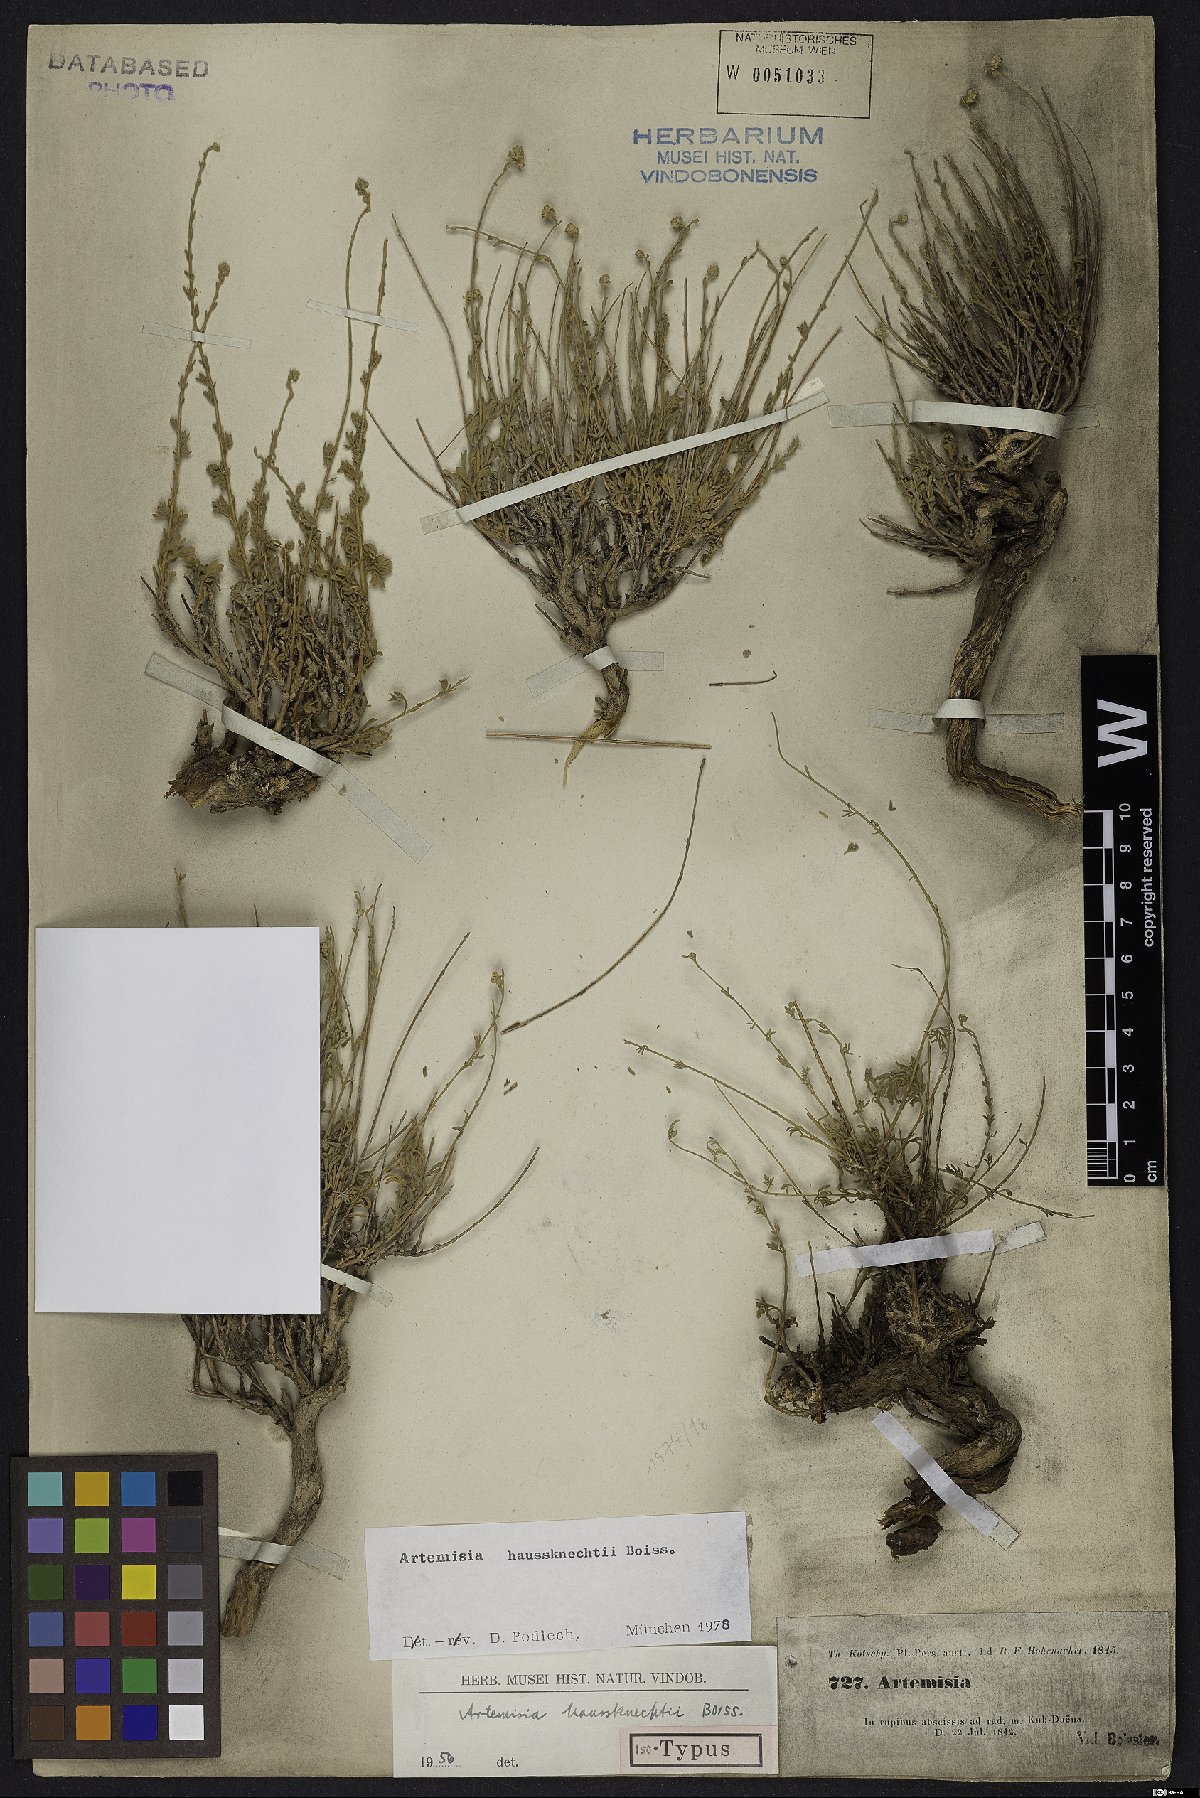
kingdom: Plantae
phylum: Tracheophyta
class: Magnoliopsida
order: Asterales
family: Asteraceae
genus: Artemisia
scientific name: Artemisia haussknechtii
